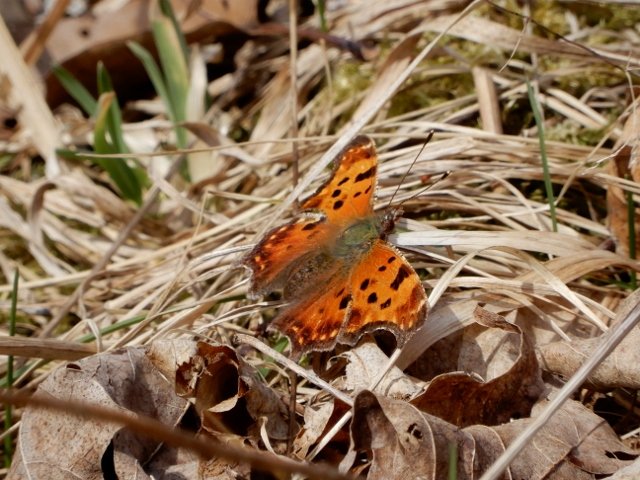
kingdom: Animalia
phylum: Arthropoda
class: Insecta
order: Lepidoptera
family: Nymphalidae
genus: Polygonia
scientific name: Polygonia comma
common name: Eastern Comma
